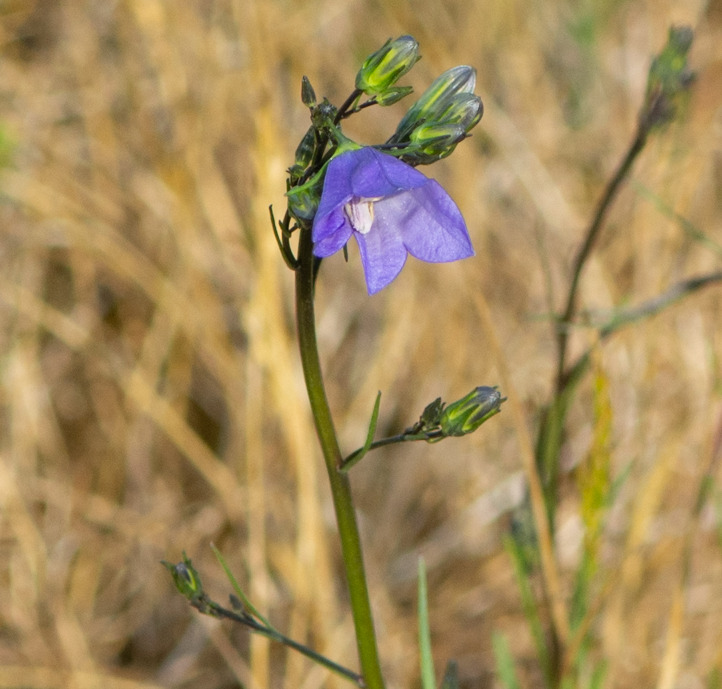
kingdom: Plantae
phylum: Tracheophyta
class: Magnoliopsida
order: Asterales
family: Campanulaceae
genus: Campanula
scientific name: Campanula rotundifolia
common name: Liden klokke
